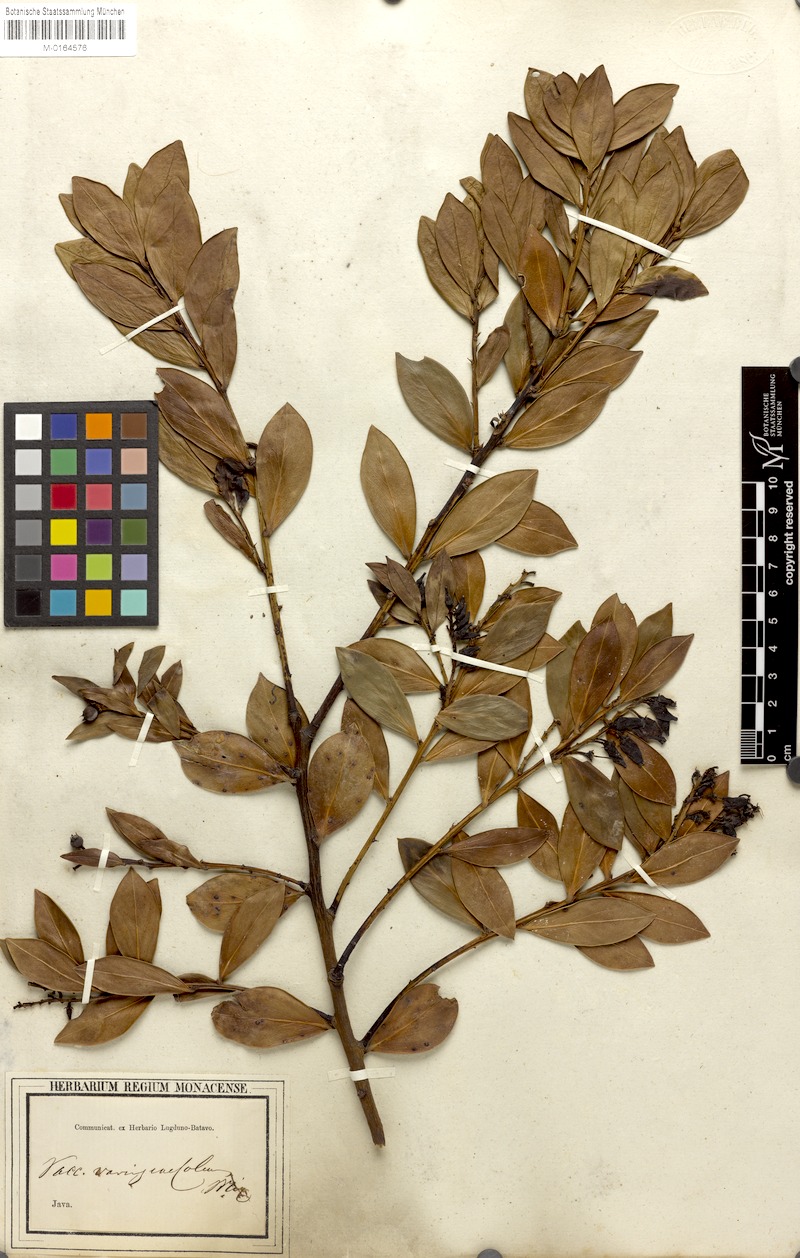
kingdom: Plantae
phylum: Tracheophyta
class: Magnoliopsida
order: Ericales
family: Ericaceae
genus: Vaccinium
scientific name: Vaccinium varingiifolium
